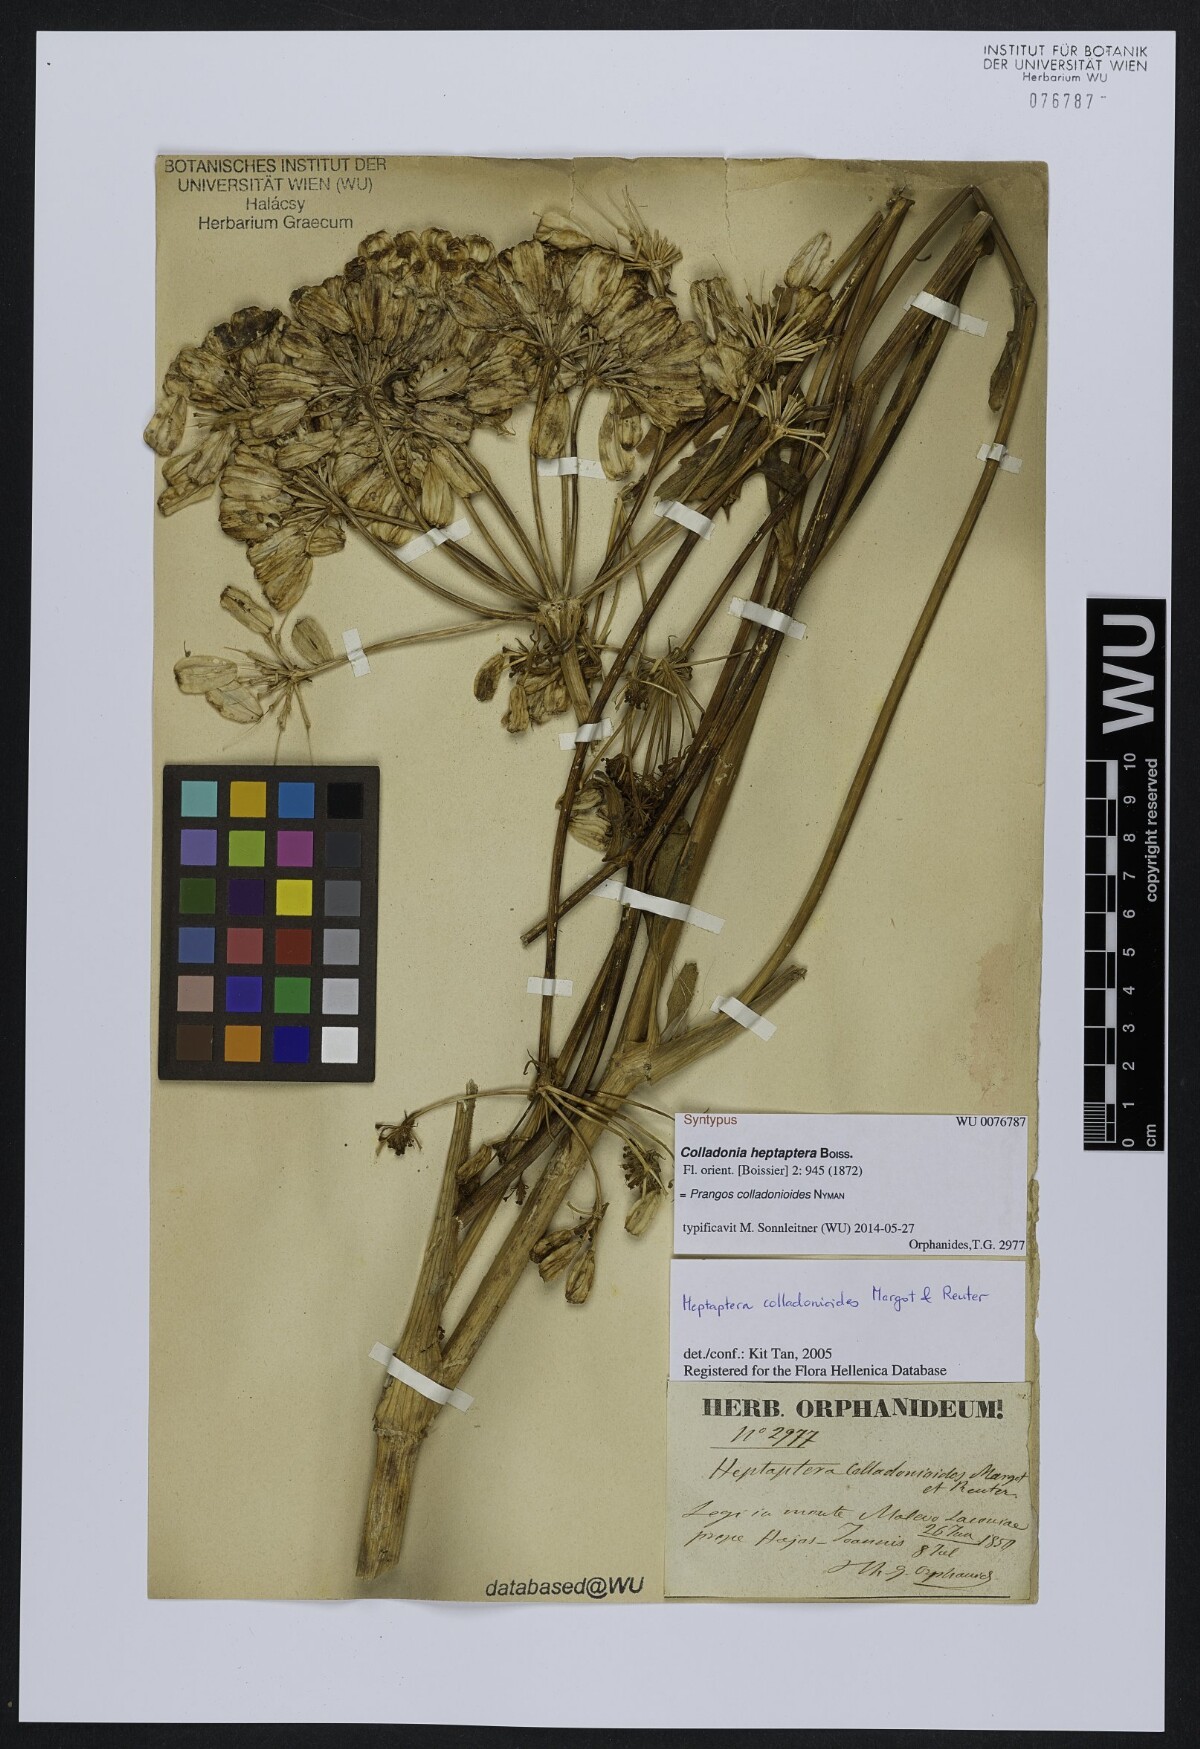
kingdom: Plantae
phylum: Tracheophyta
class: Magnoliopsida
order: Apiales
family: Apiaceae
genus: Heptaptera
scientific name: Heptaptera colladonioides
